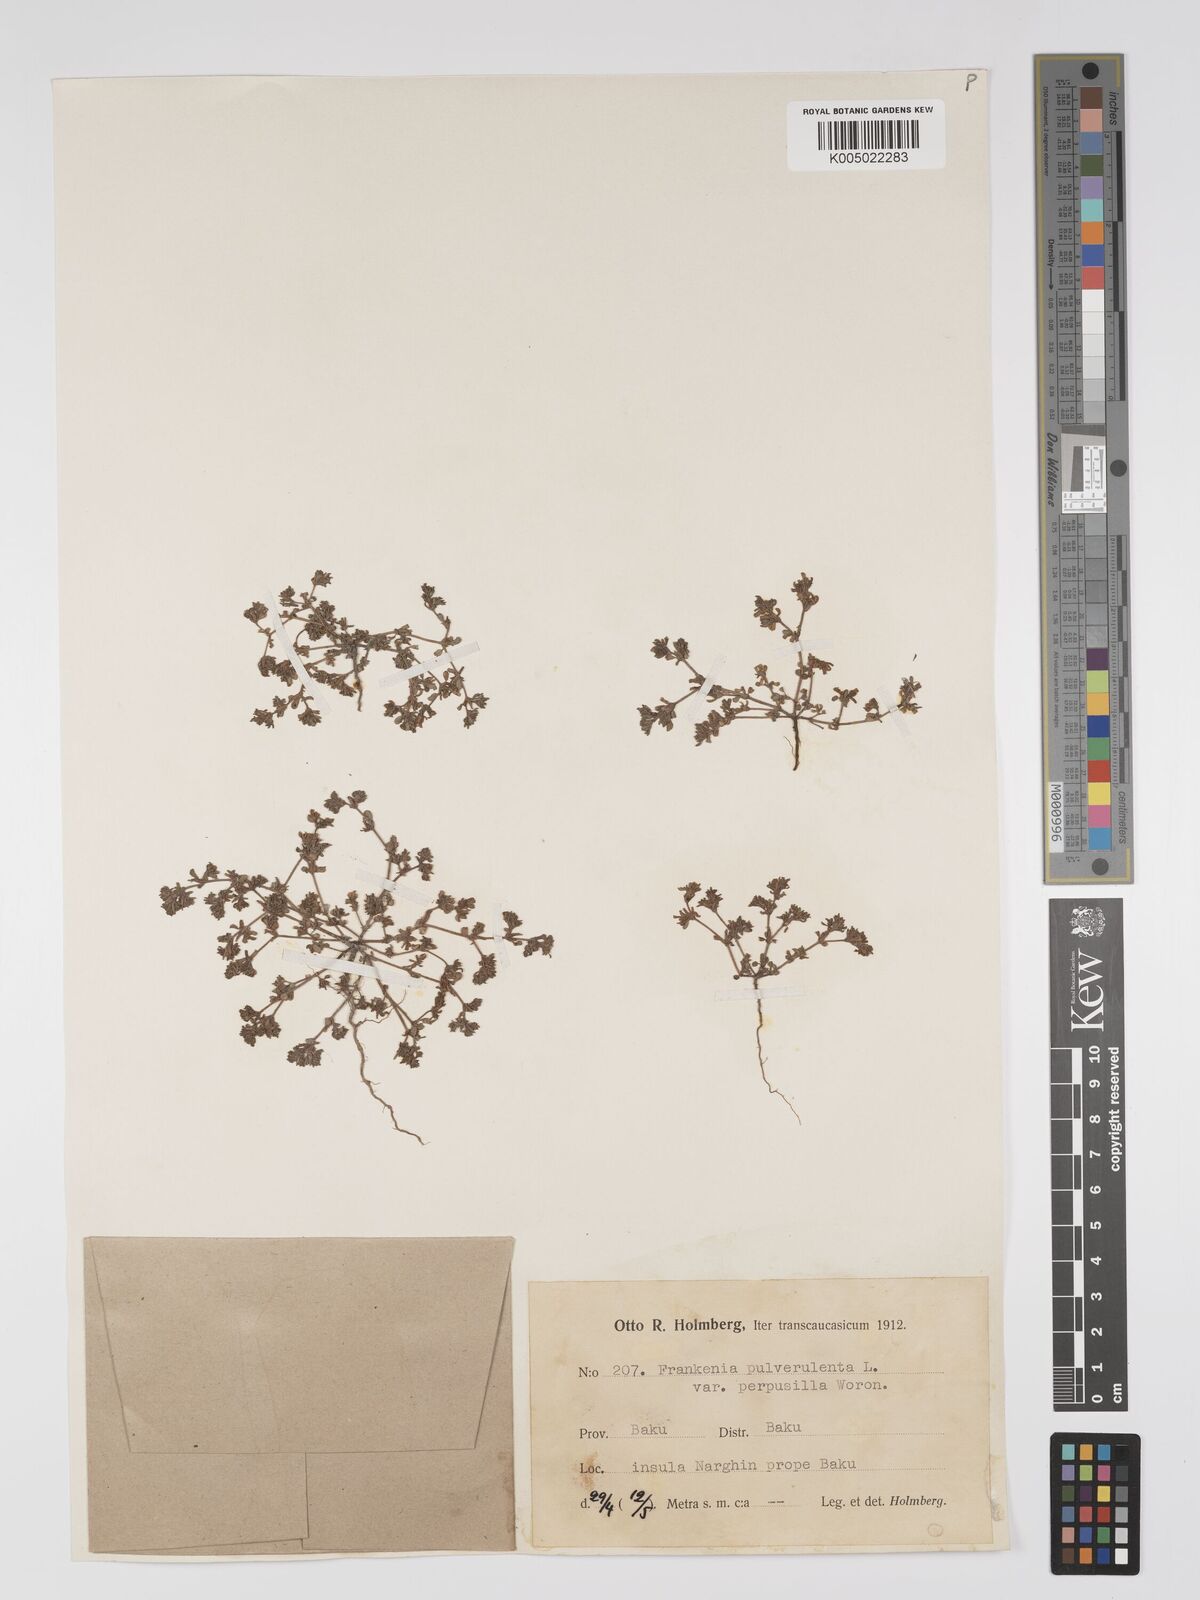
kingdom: Plantae
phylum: Tracheophyta
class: Magnoliopsida
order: Caryophyllales
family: Frankeniaceae
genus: Frankenia
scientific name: Frankenia pulverulenta
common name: European seaheath
